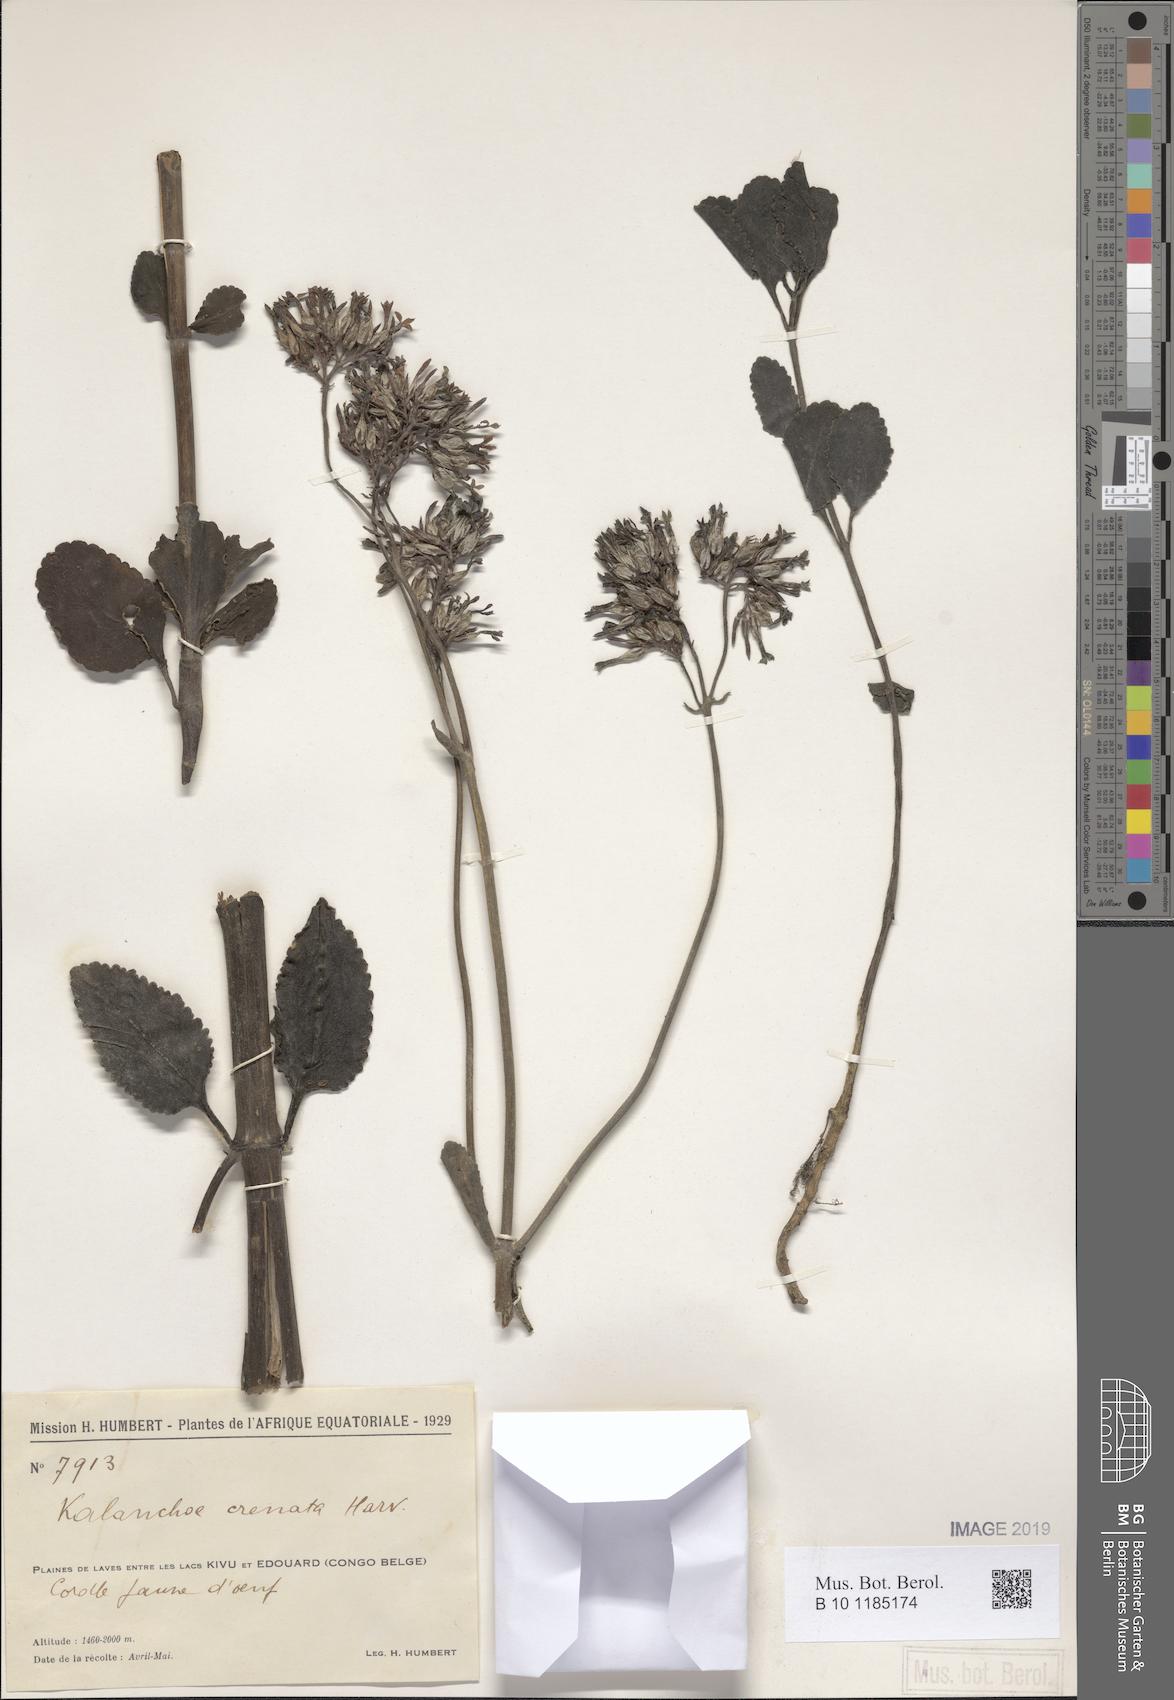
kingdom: Plantae
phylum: Tracheophyta
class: Magnoliopsida
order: Saxifragales
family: Crassulaceae
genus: Kalanchoe
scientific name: Kalanchoe crenata
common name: Neverdie
